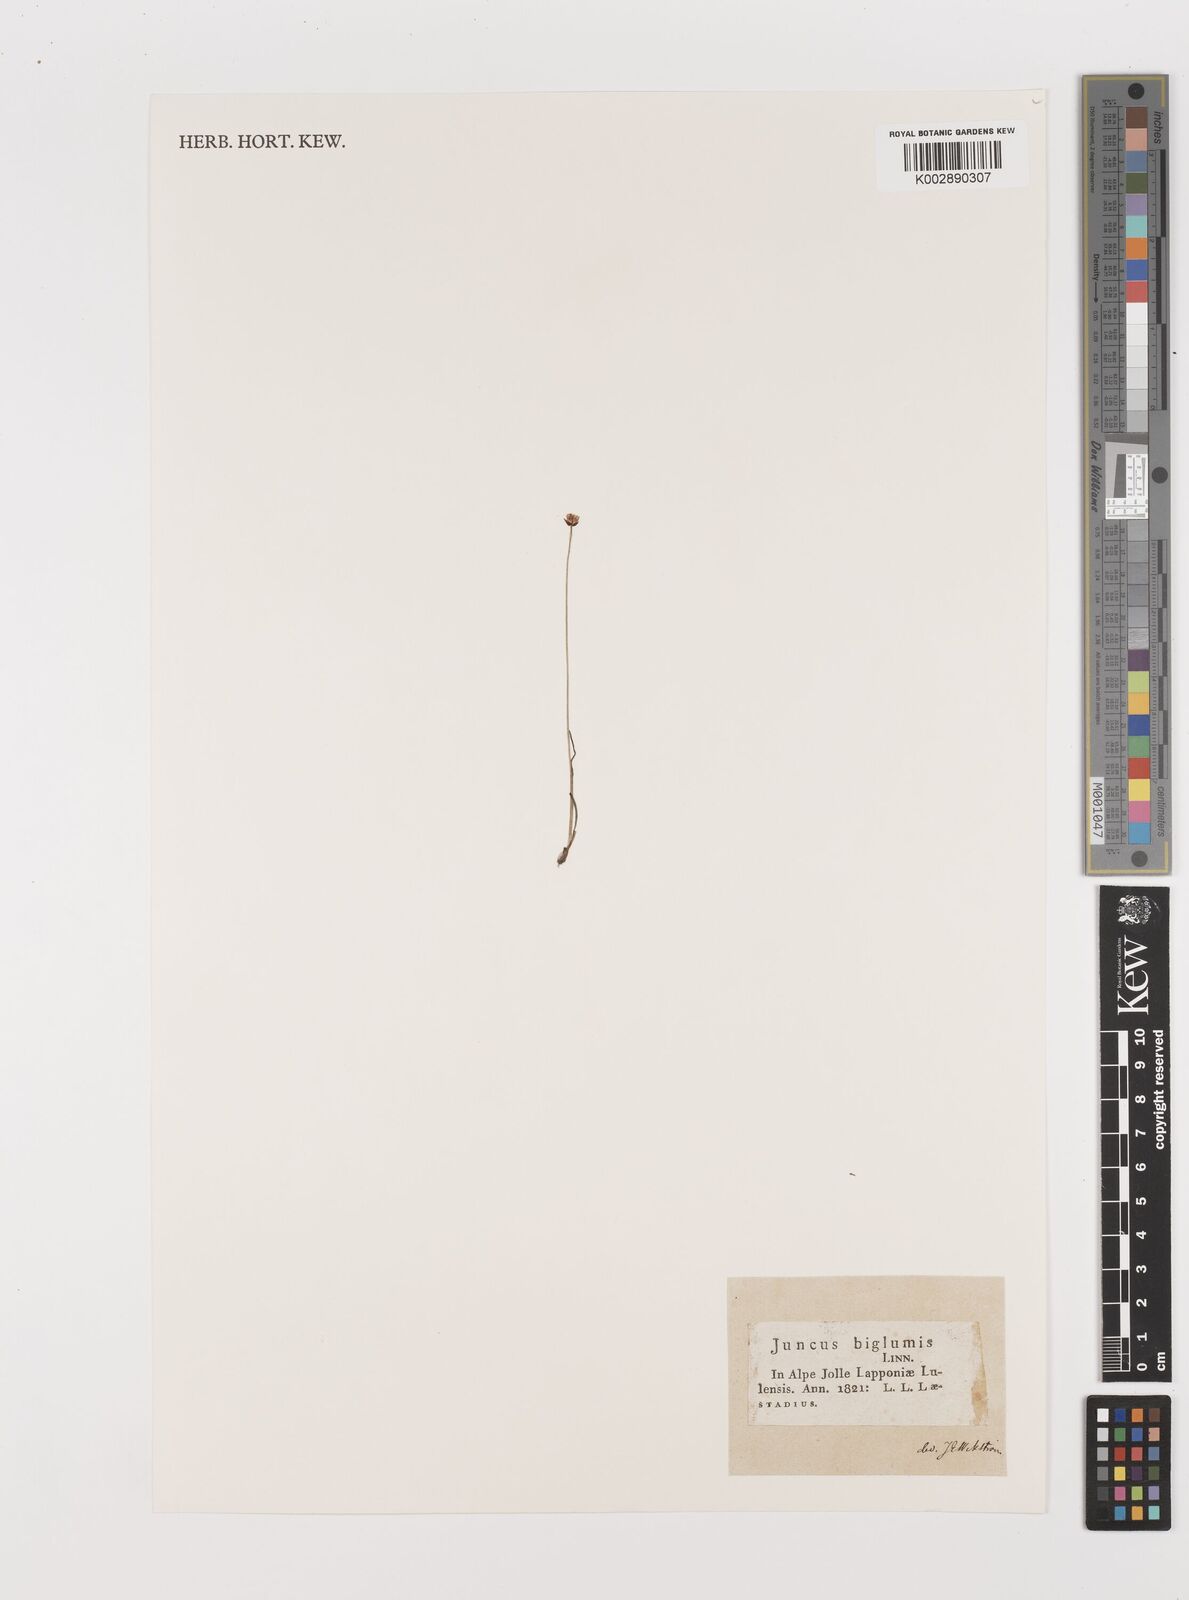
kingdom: Plantae
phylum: Tracheophyta
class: Liliopsida
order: Poales
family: Juncaceae
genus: Juncus
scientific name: Juncus biglumis
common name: Two-flowered rush
